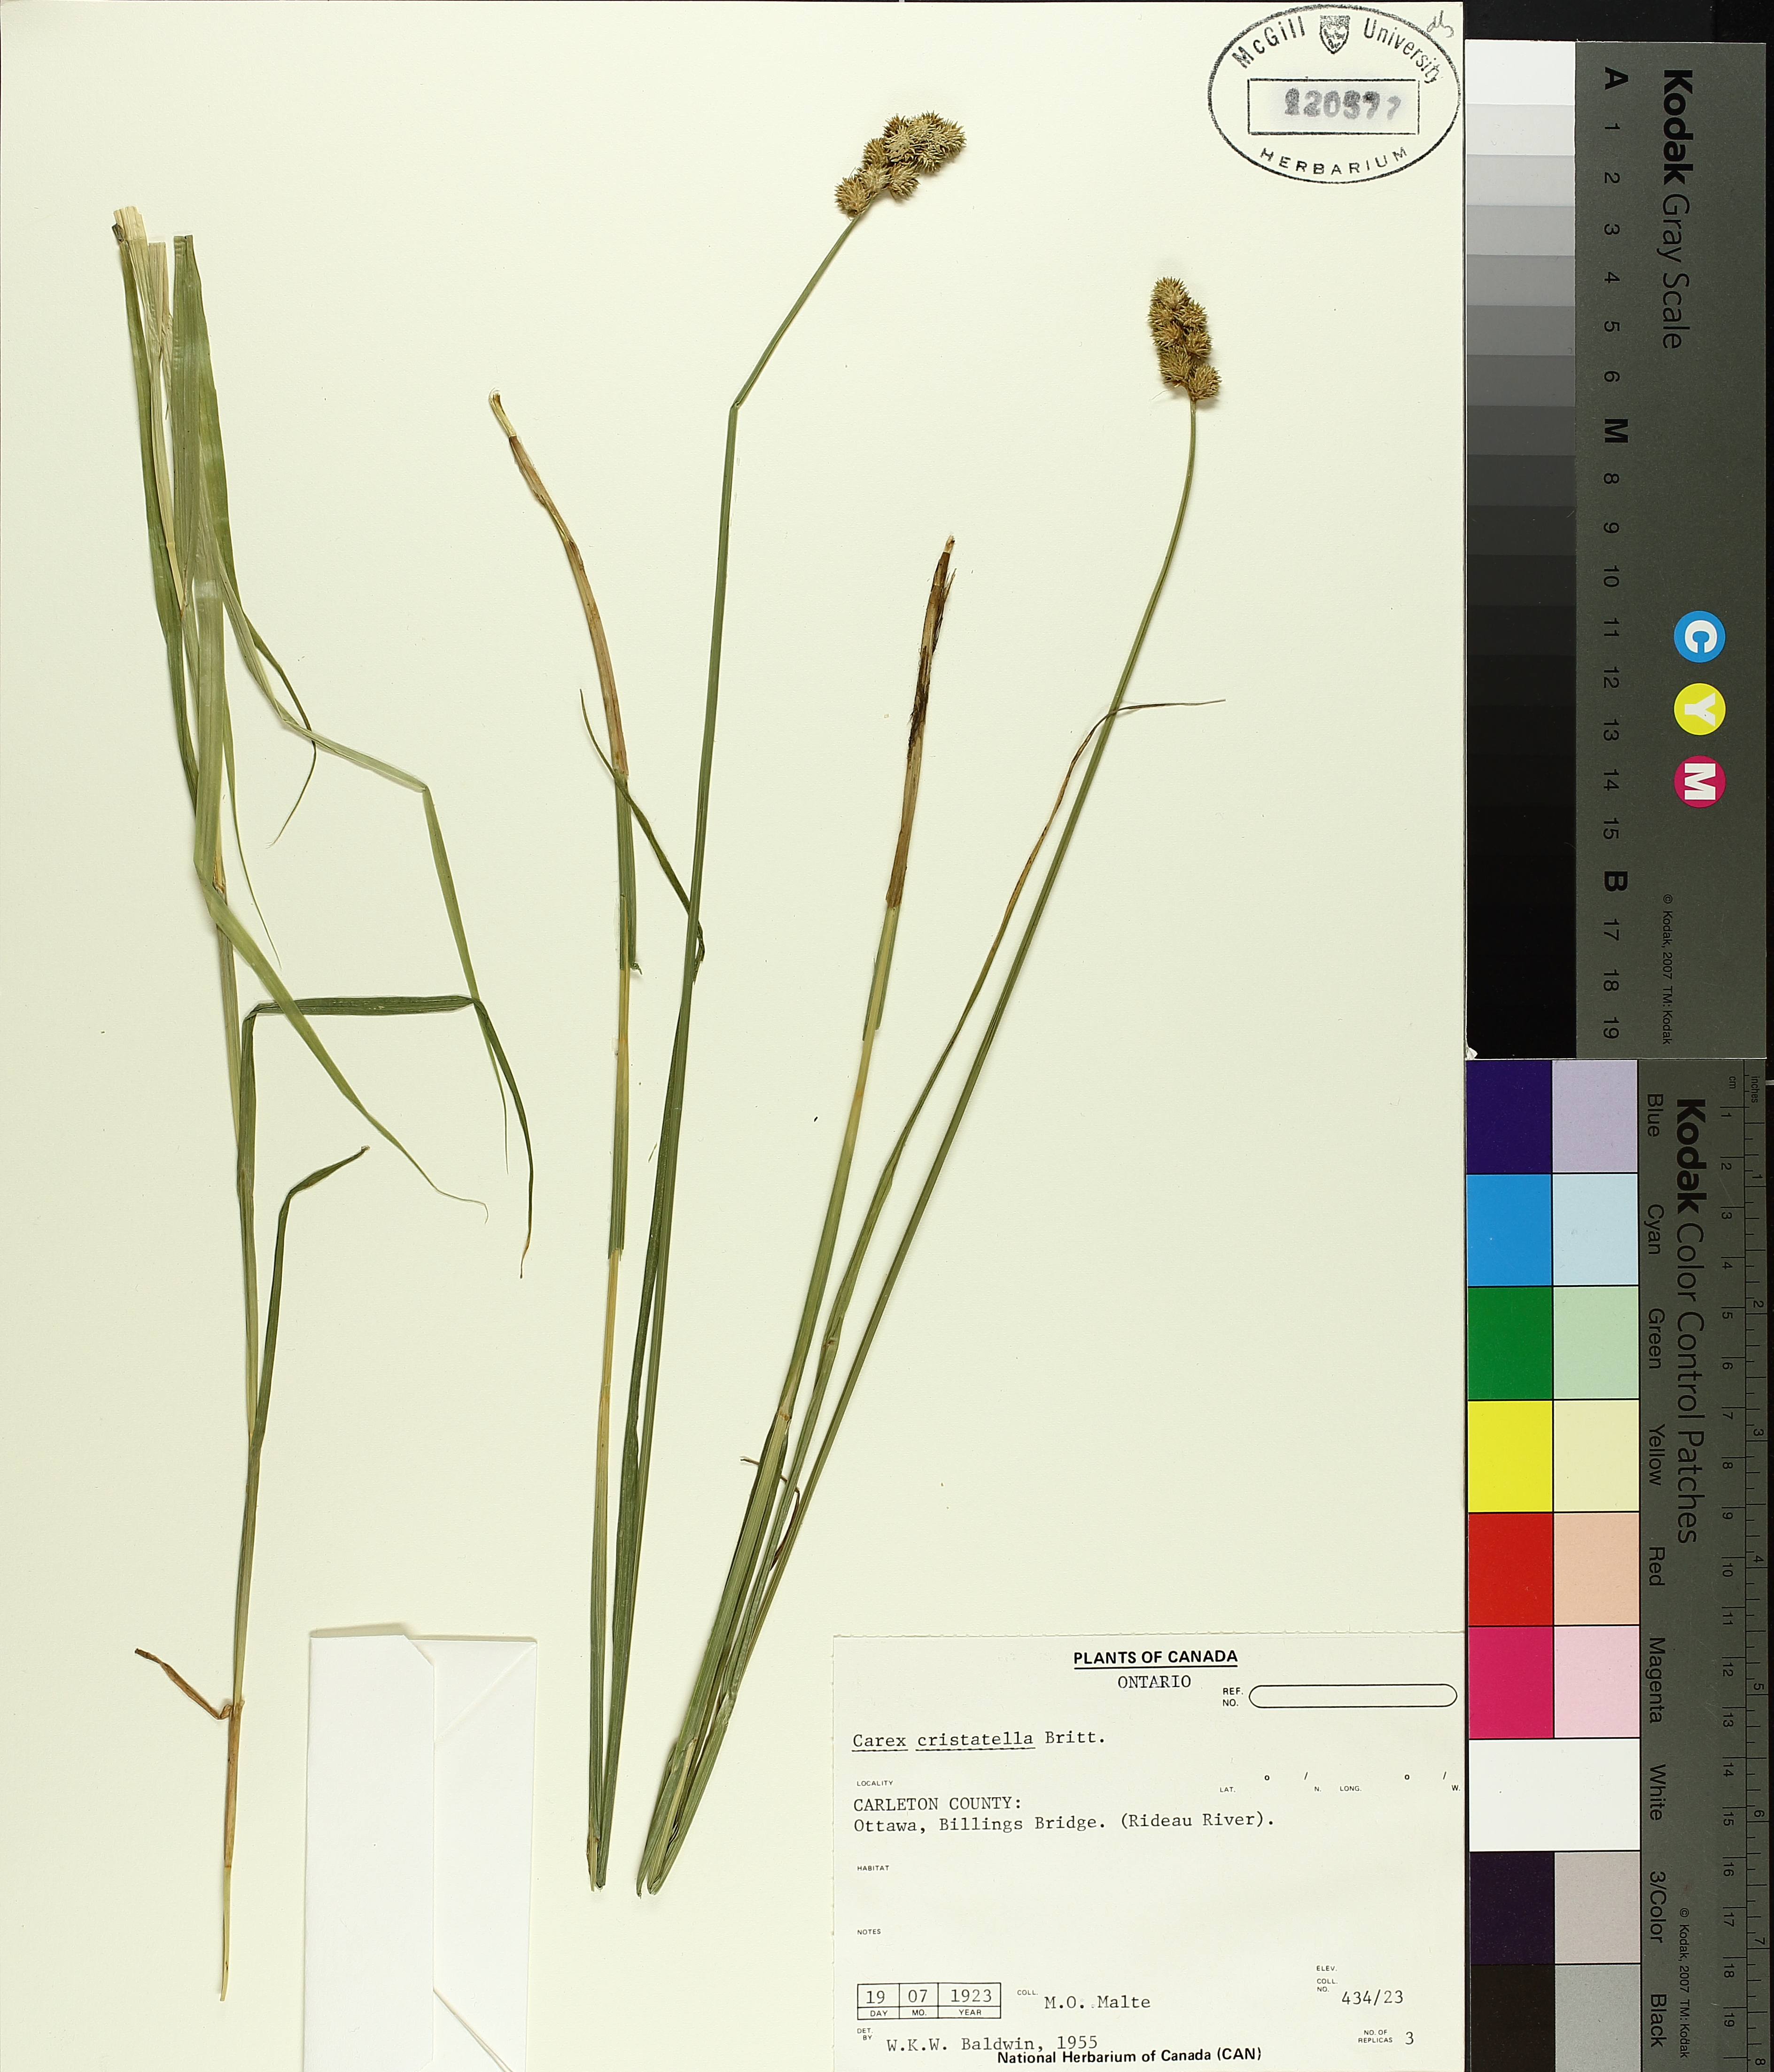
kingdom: Plantae
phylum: Tracheophyta
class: Liliopsida
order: Poales
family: Cyperaceae
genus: Carex
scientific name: Carex lenticularis
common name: Lakeshore sedge
